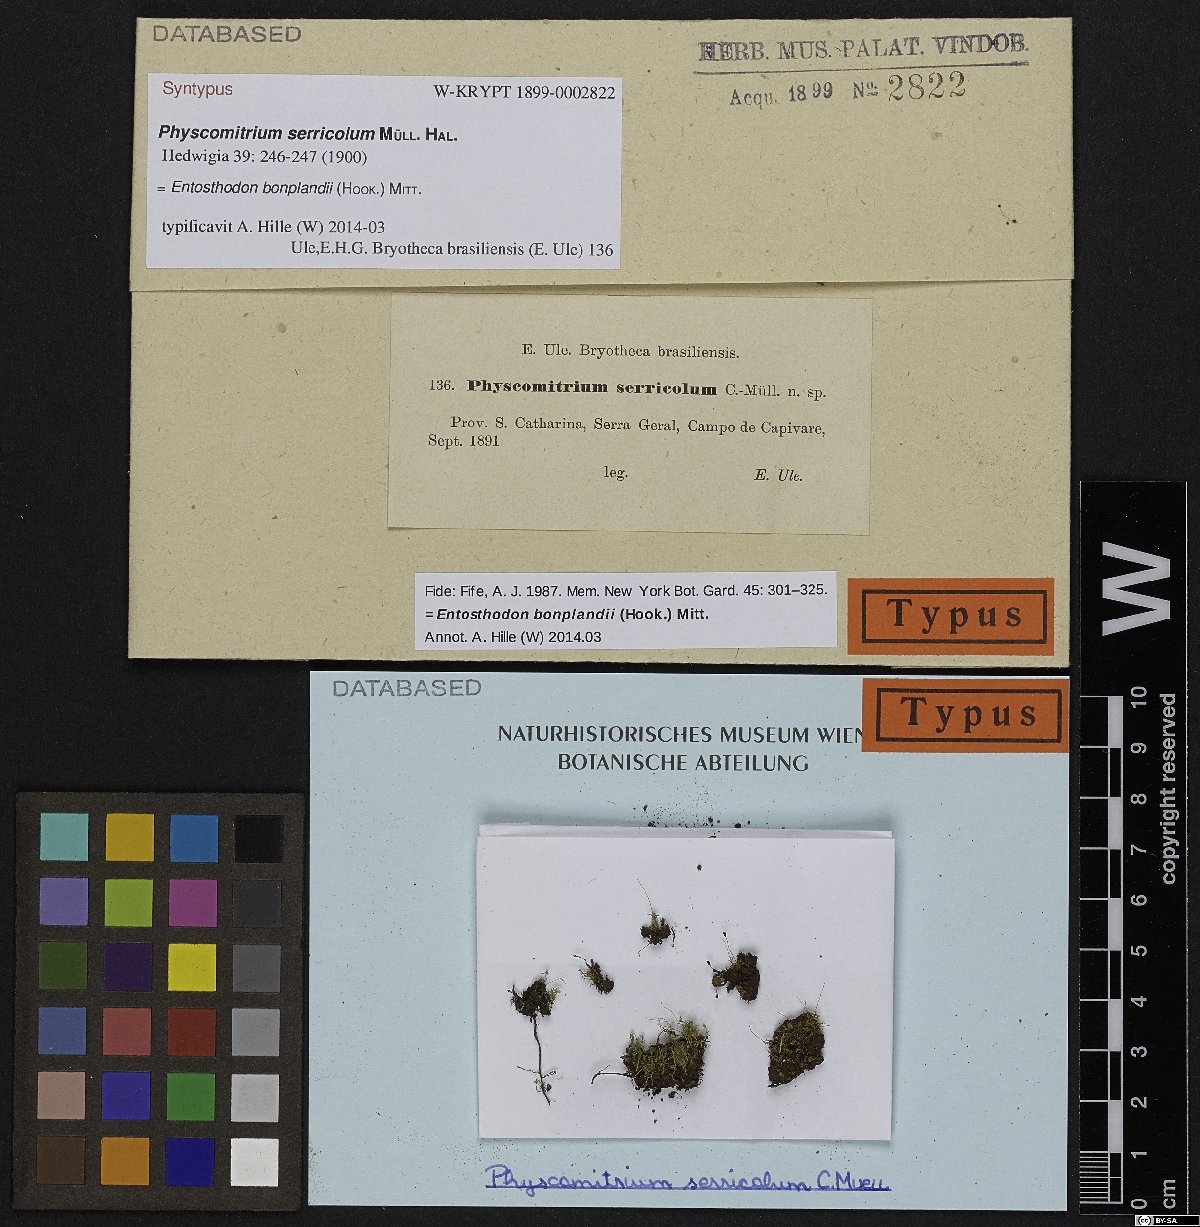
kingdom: Plantae
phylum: Bryophyta
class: Bryopsida
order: Funariales
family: Funariaceae
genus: Entosthodon
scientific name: Entosthodon bonplandii
